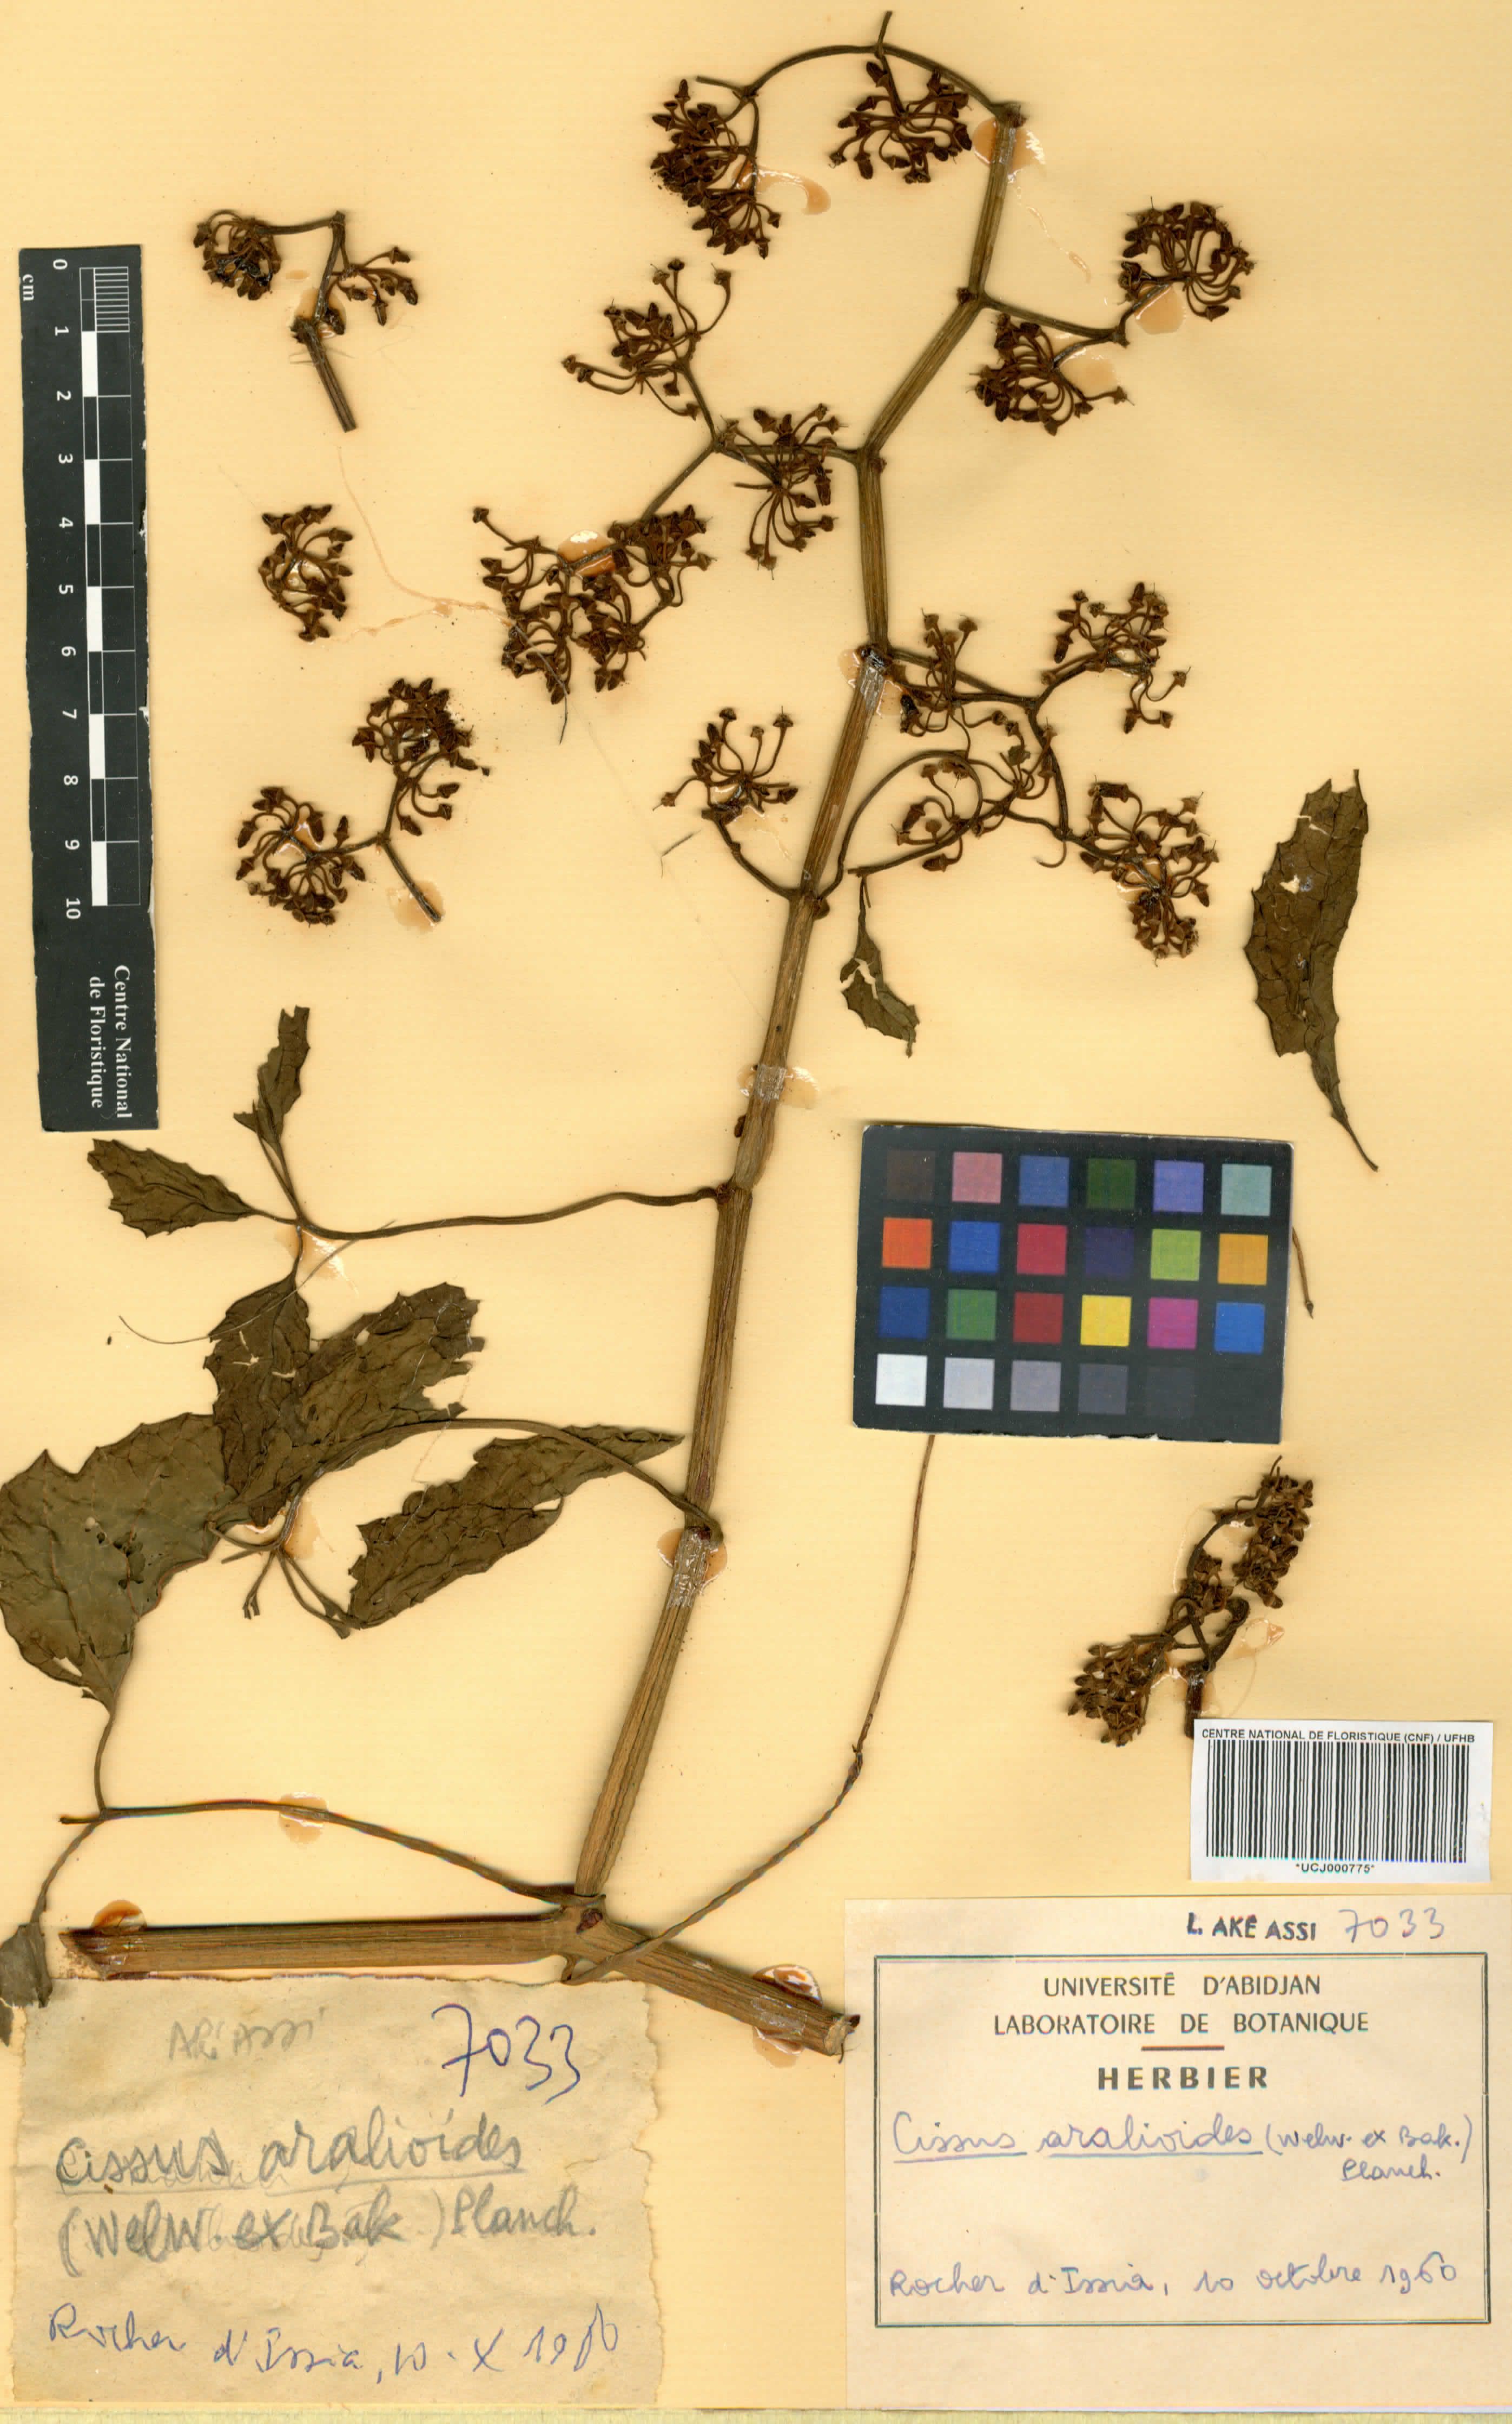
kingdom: Plantae
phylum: Tracheophyta
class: Magnoliopsida
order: Vitales
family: Vitaceae
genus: Cissus
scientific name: Cissus aralioides
